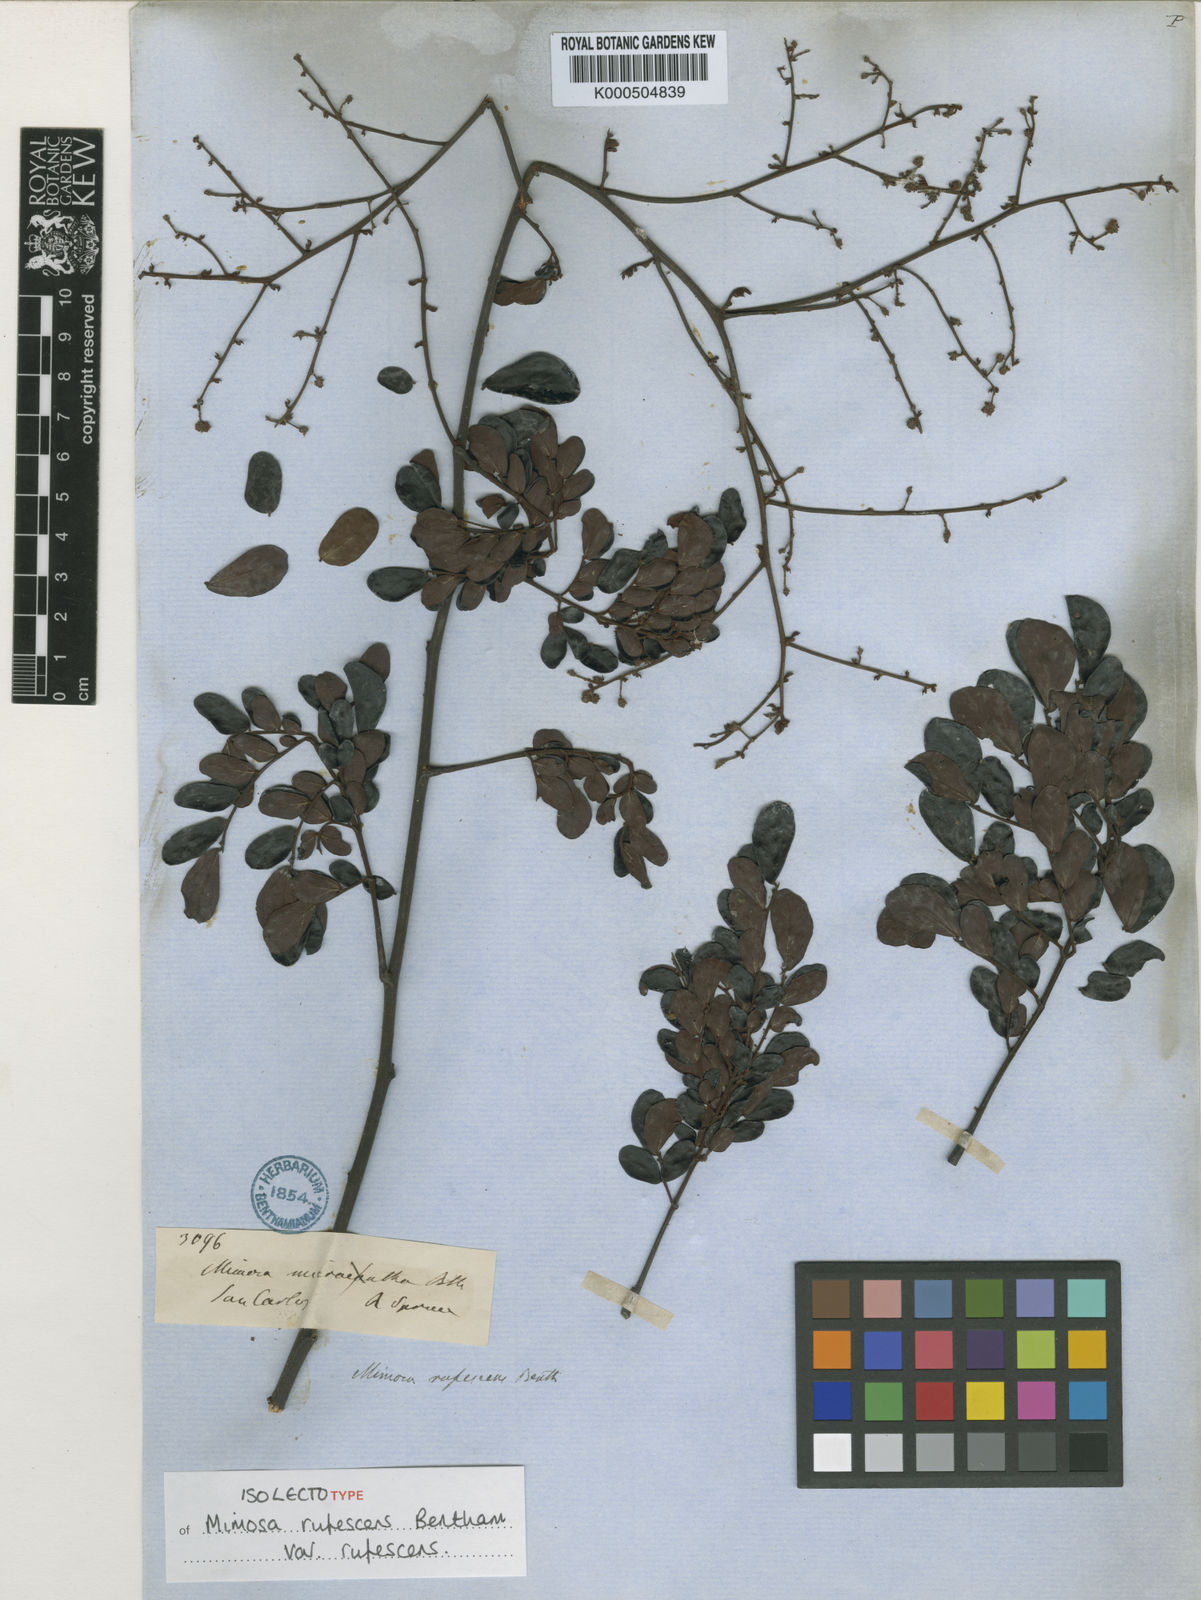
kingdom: Plantae
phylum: Tracheophyta
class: Magnoliopsida
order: Fabales
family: Fabaceae
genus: Mimosa
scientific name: Mimosa rufescens
